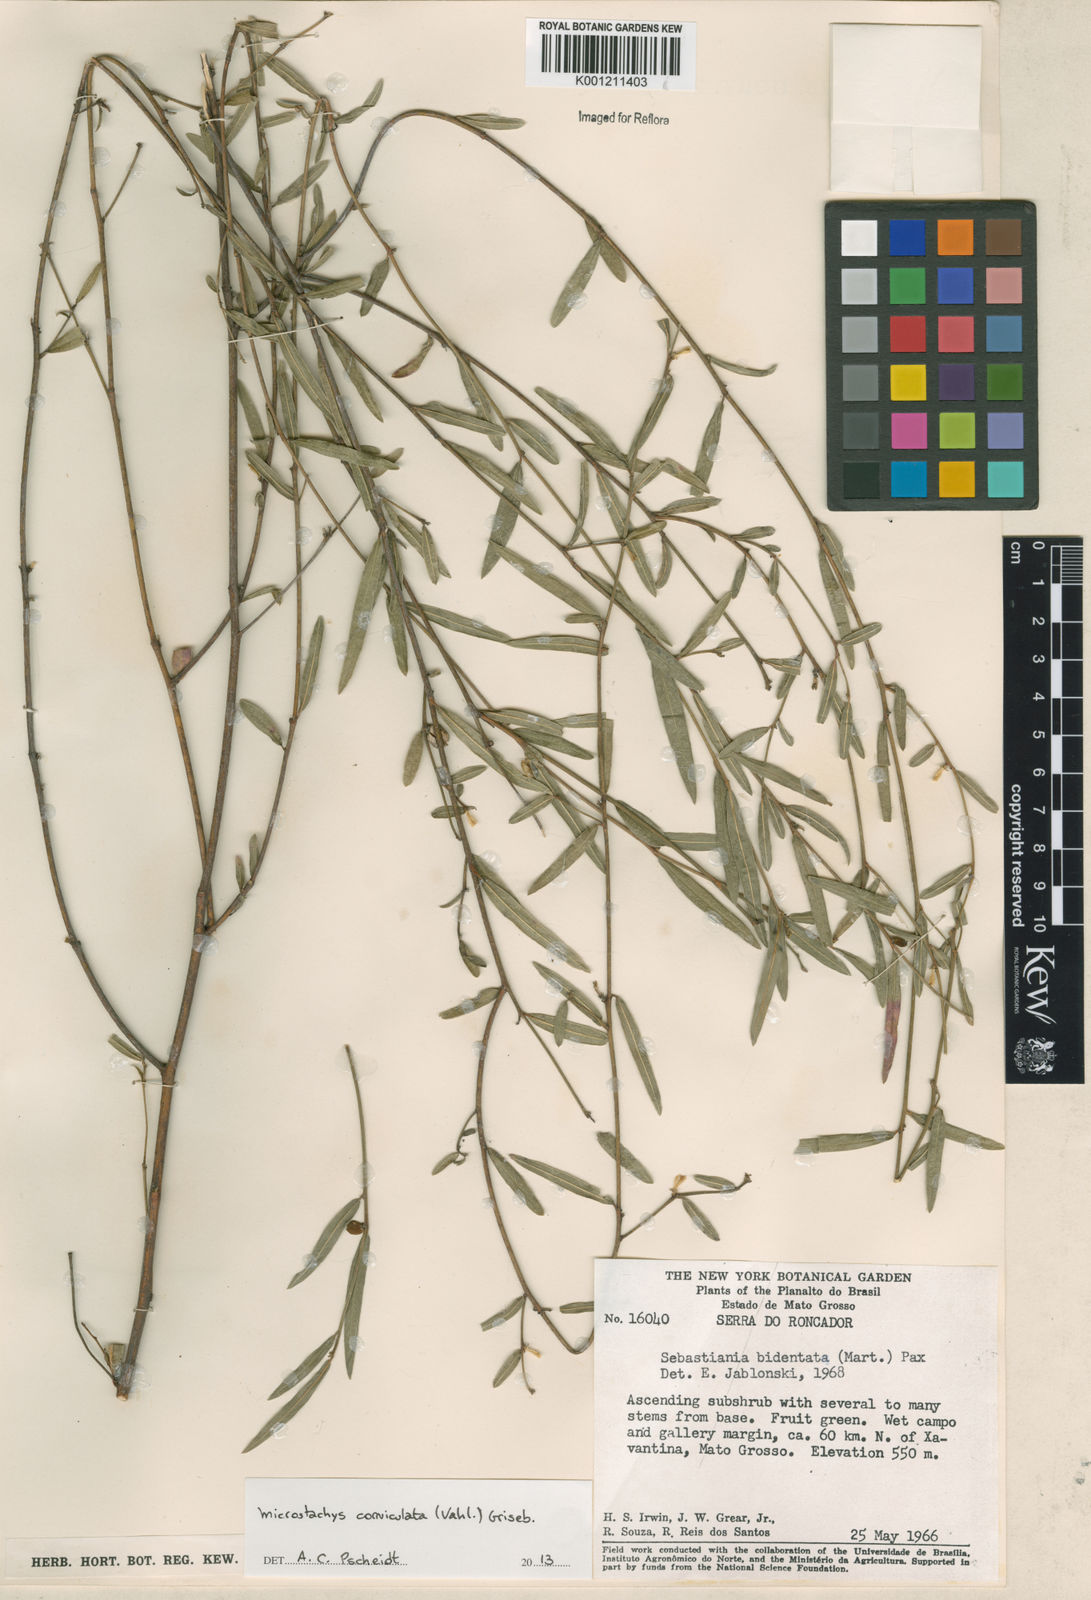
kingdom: Plantae
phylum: Tracheophyta
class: Magnoliopsida
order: Malpighiales
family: Euphorbiaceae
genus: Microstachys
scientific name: Microstachys corniculata
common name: Hato tejas
